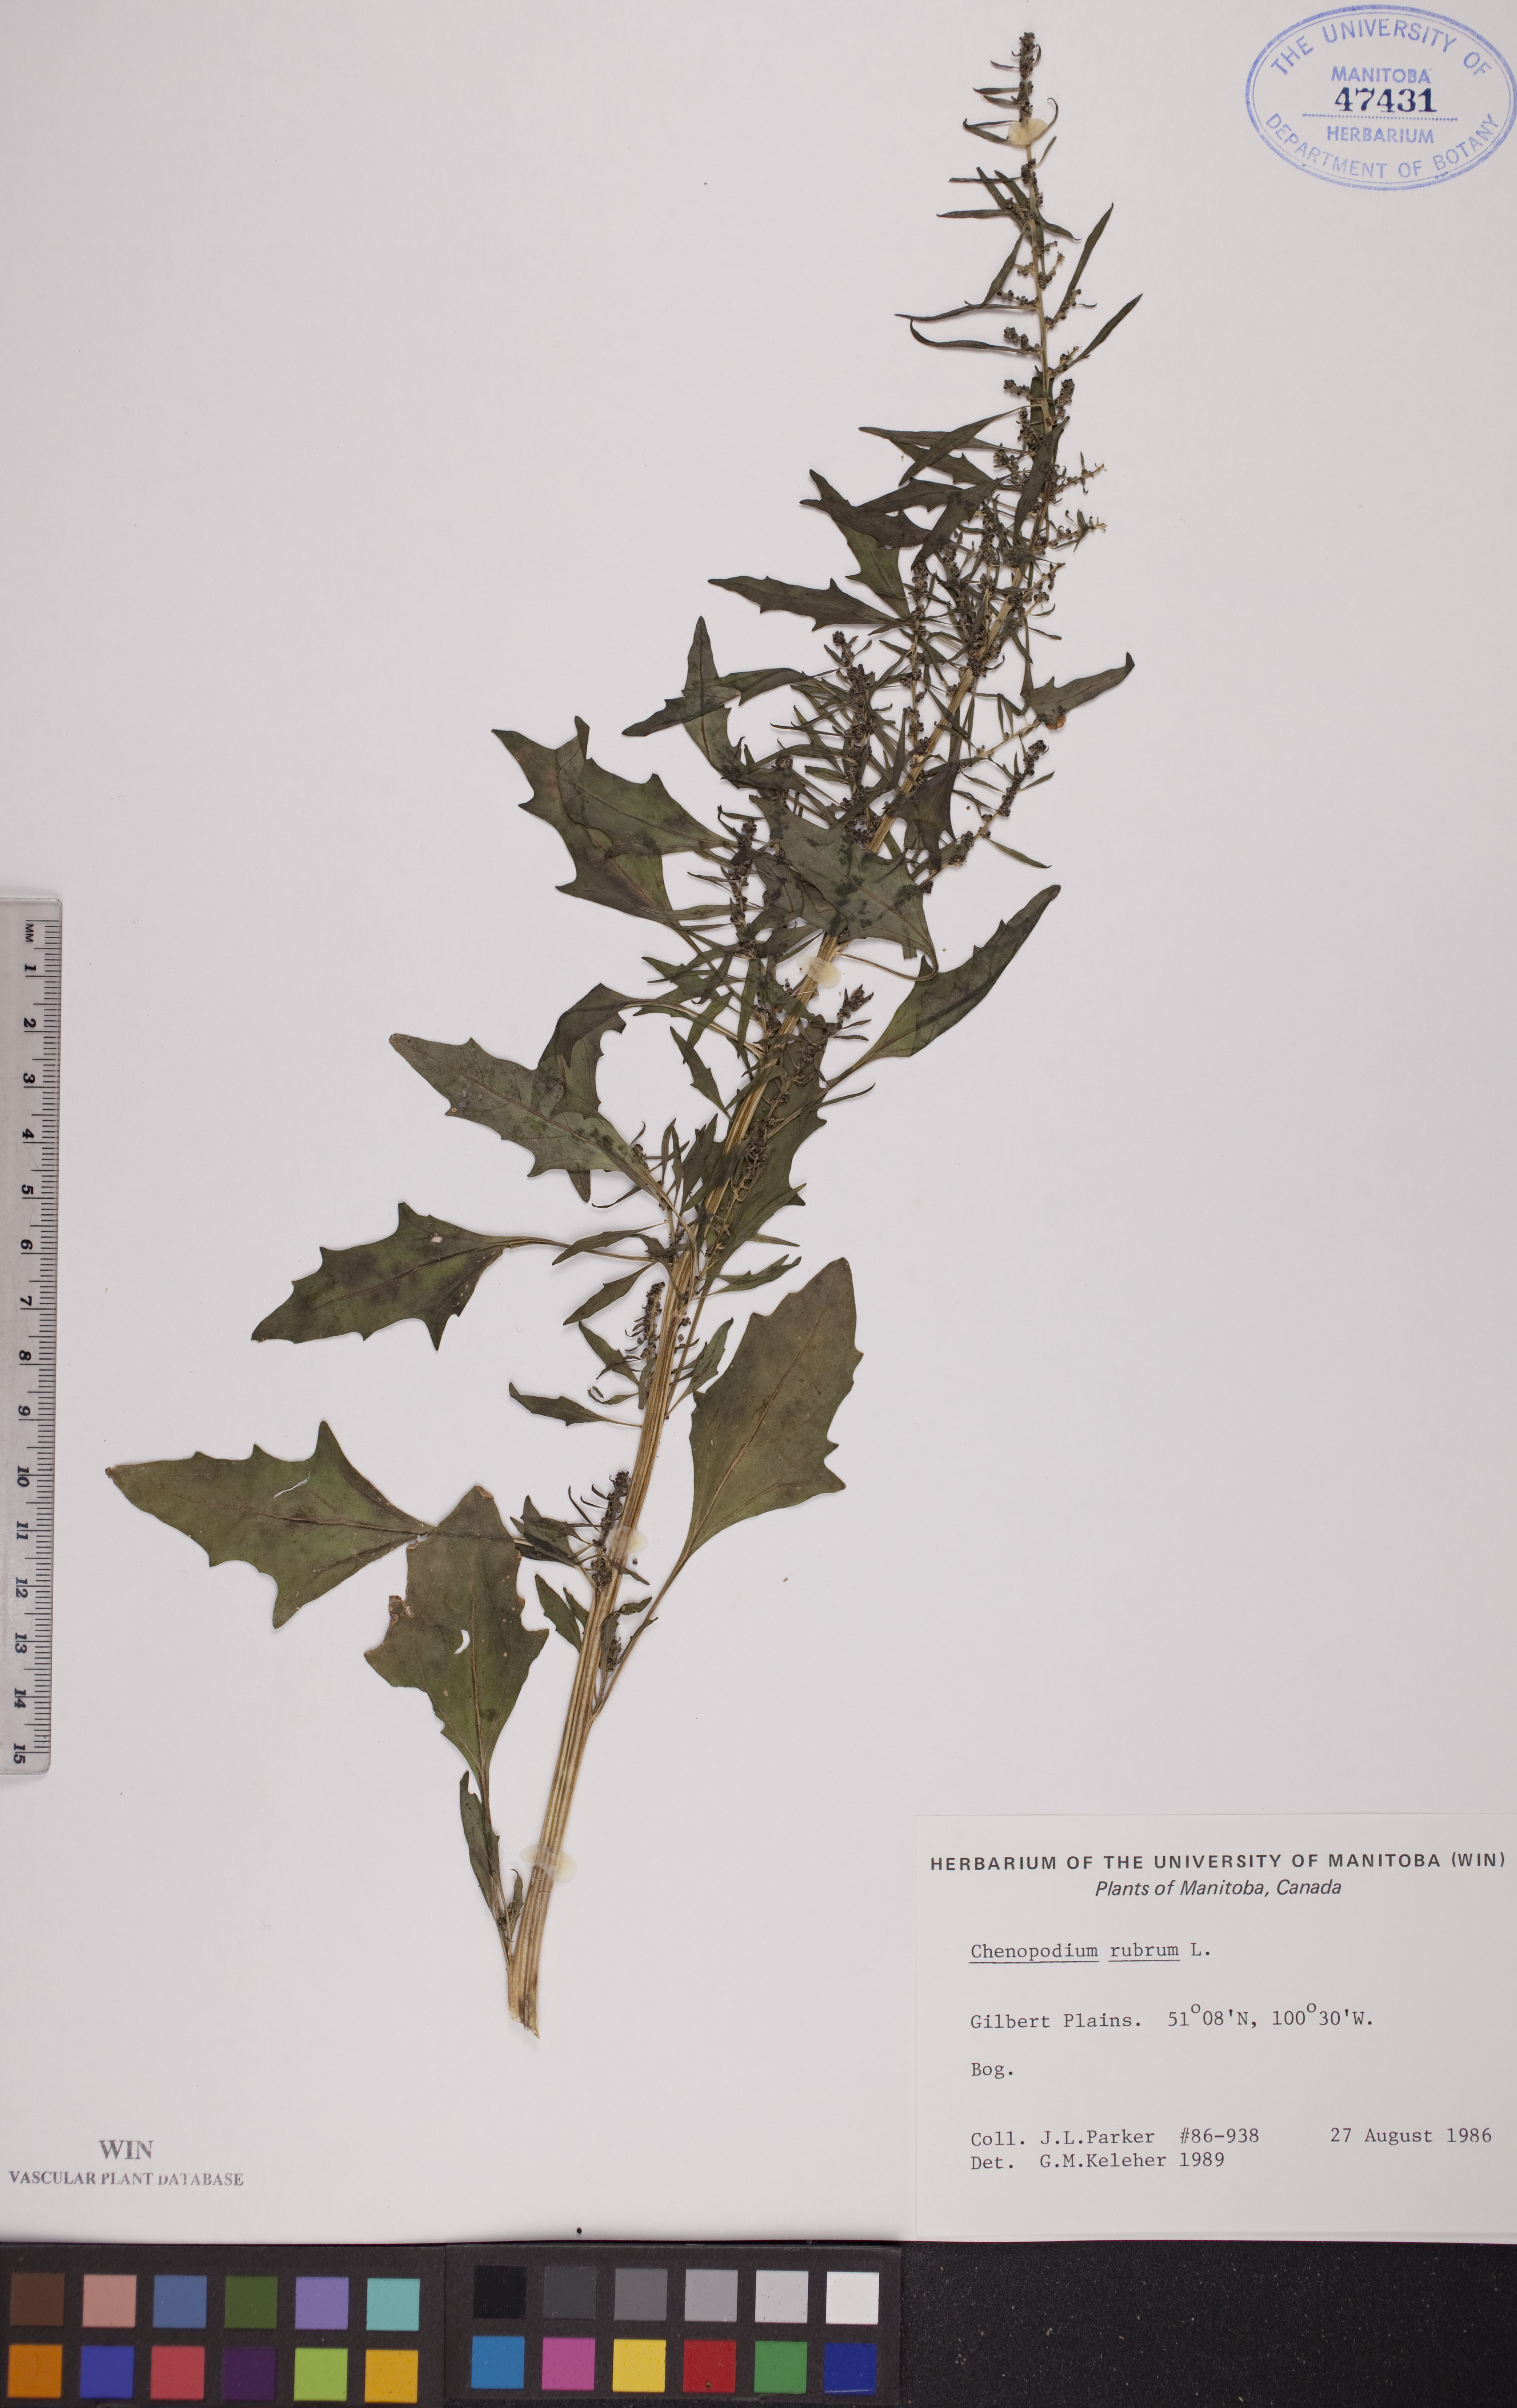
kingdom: Plantae
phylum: Tracheophyta
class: Magnoliopsida
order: Caryophyllales
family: Amaranthaceae
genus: Oxybasis
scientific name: Oxybasis rubra
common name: Red goosefoot
